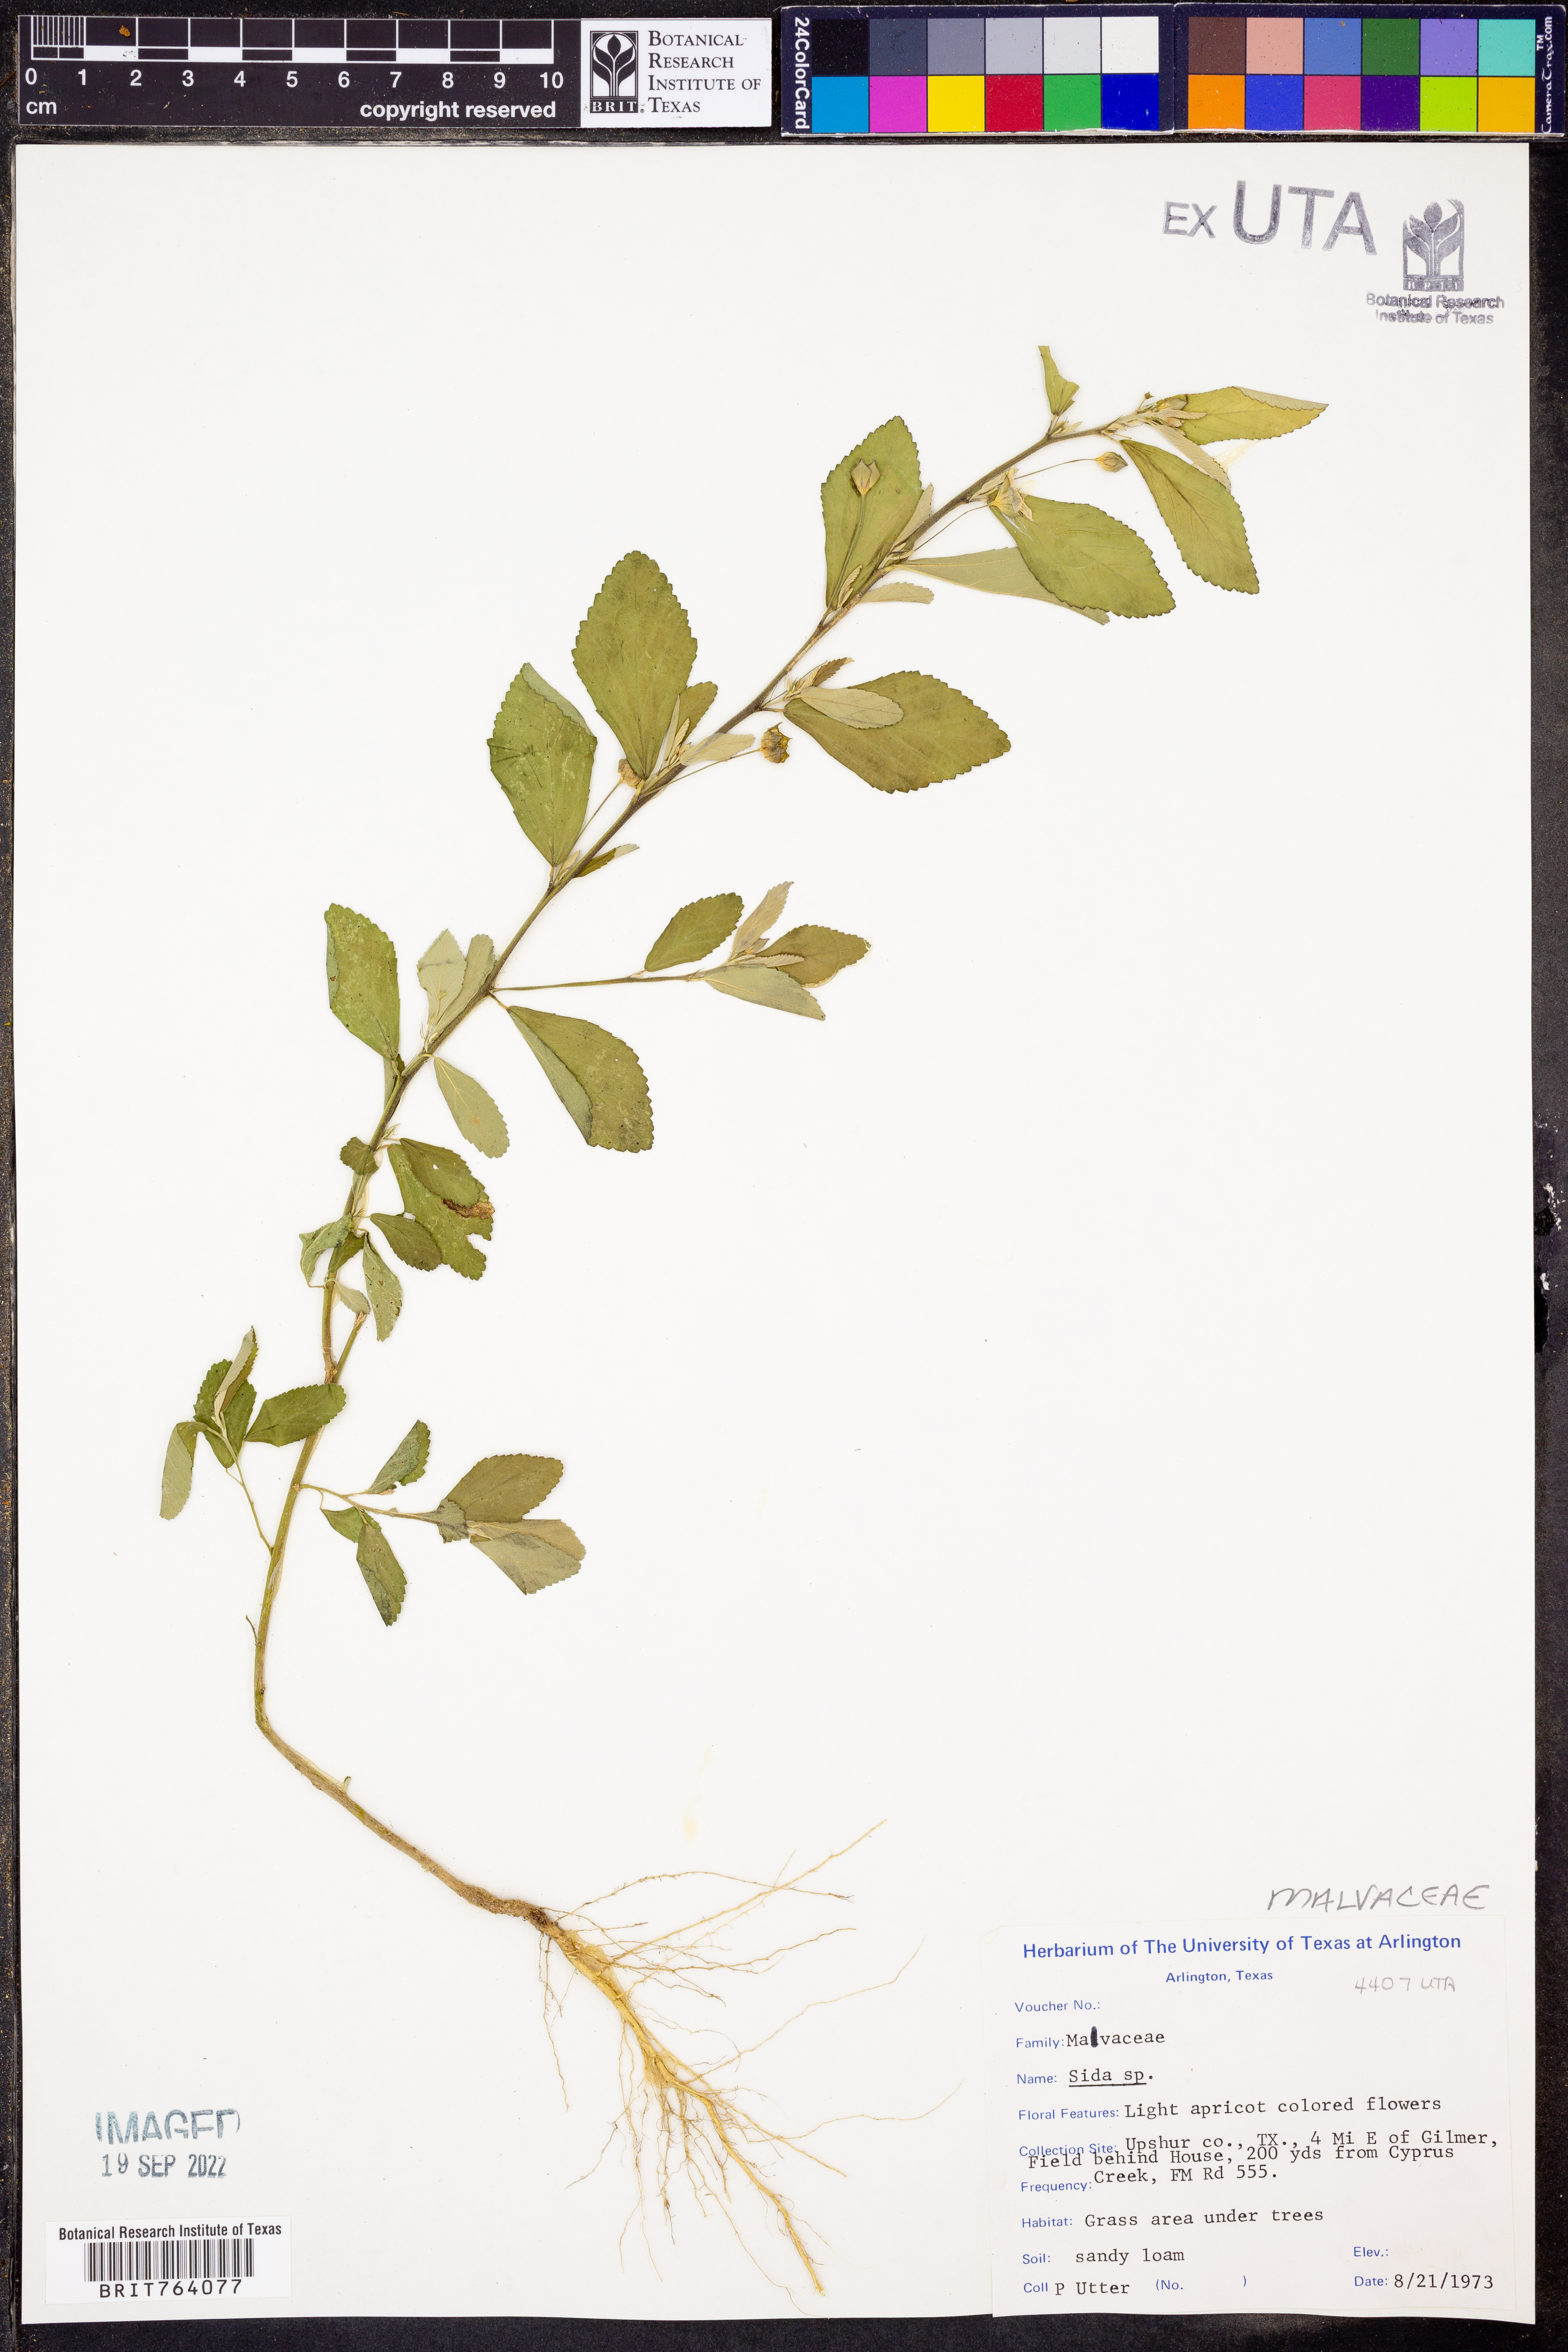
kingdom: Plantae
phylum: Tracheophyta
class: Magnoliopsida
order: Malvales
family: Malvaceae
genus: Sida
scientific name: Sida
